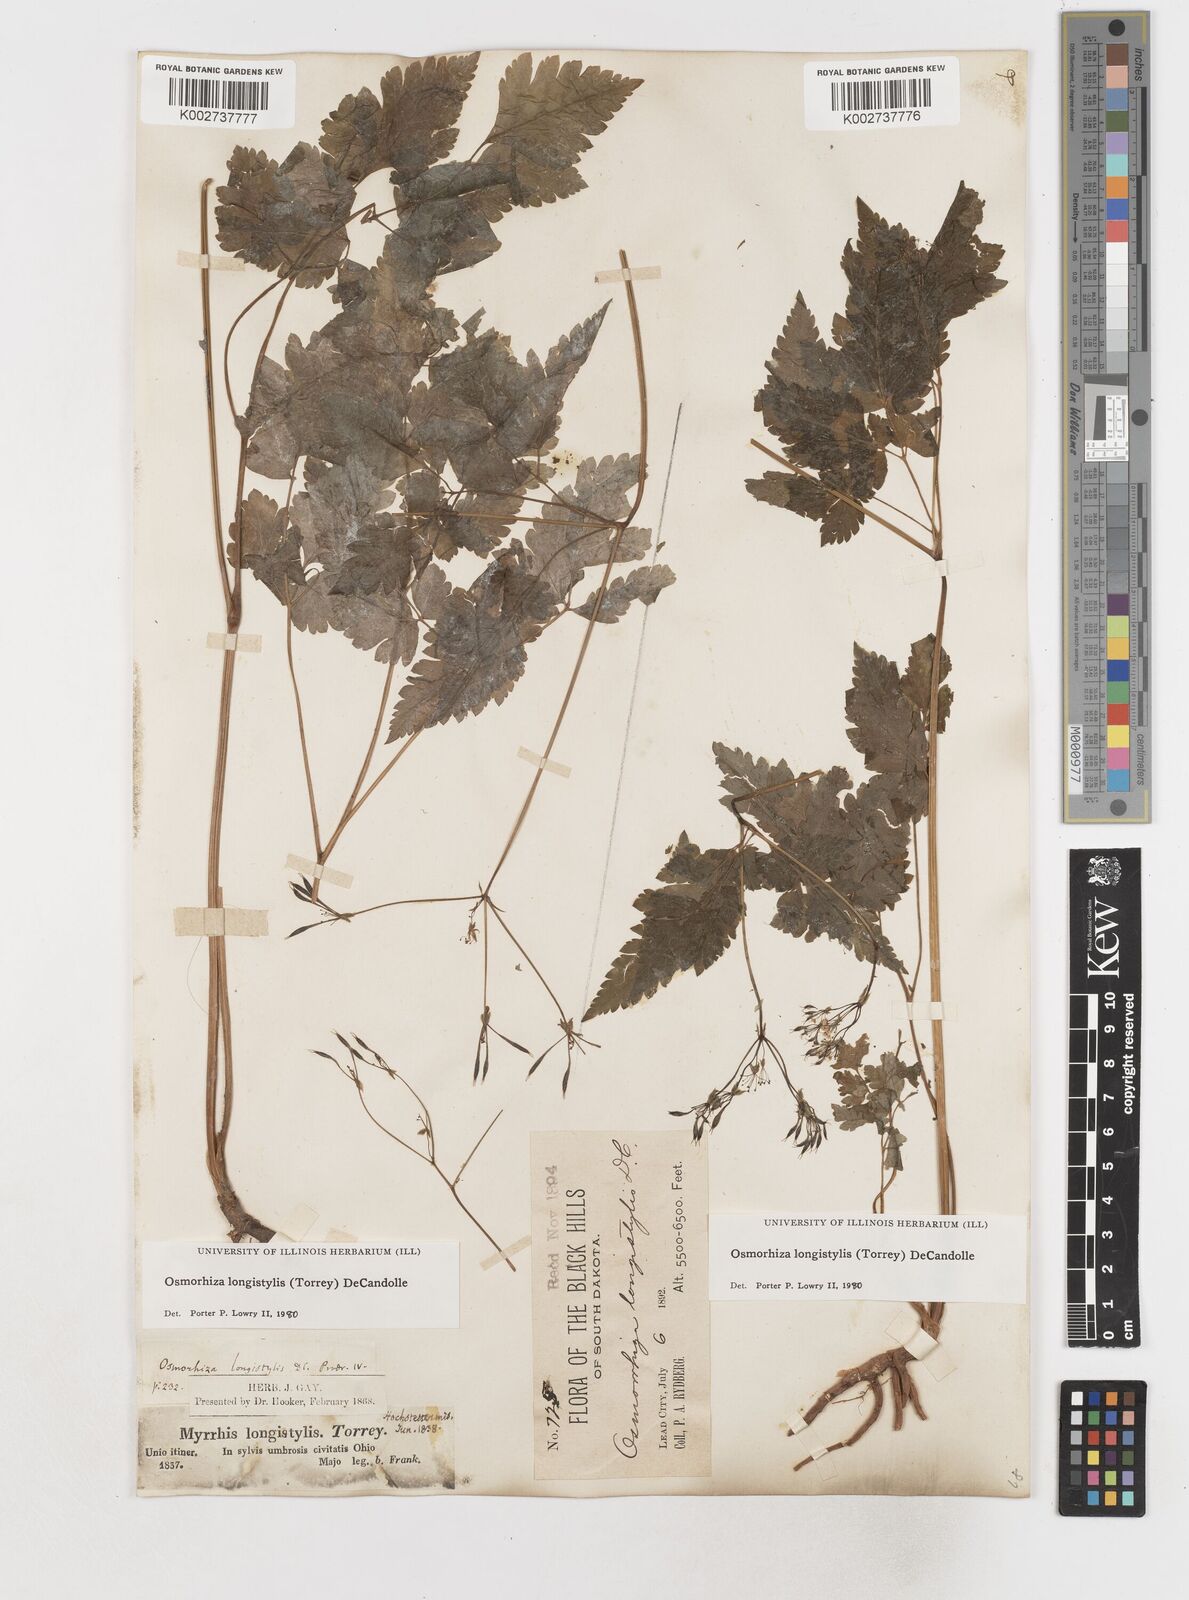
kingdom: Plantae
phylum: Tracheophyta
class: Magnoliopsida
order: Apiales
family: Apiaceae
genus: Osmorhiza
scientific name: Osmorhiza longistylis
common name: Smooth sweet cicely
